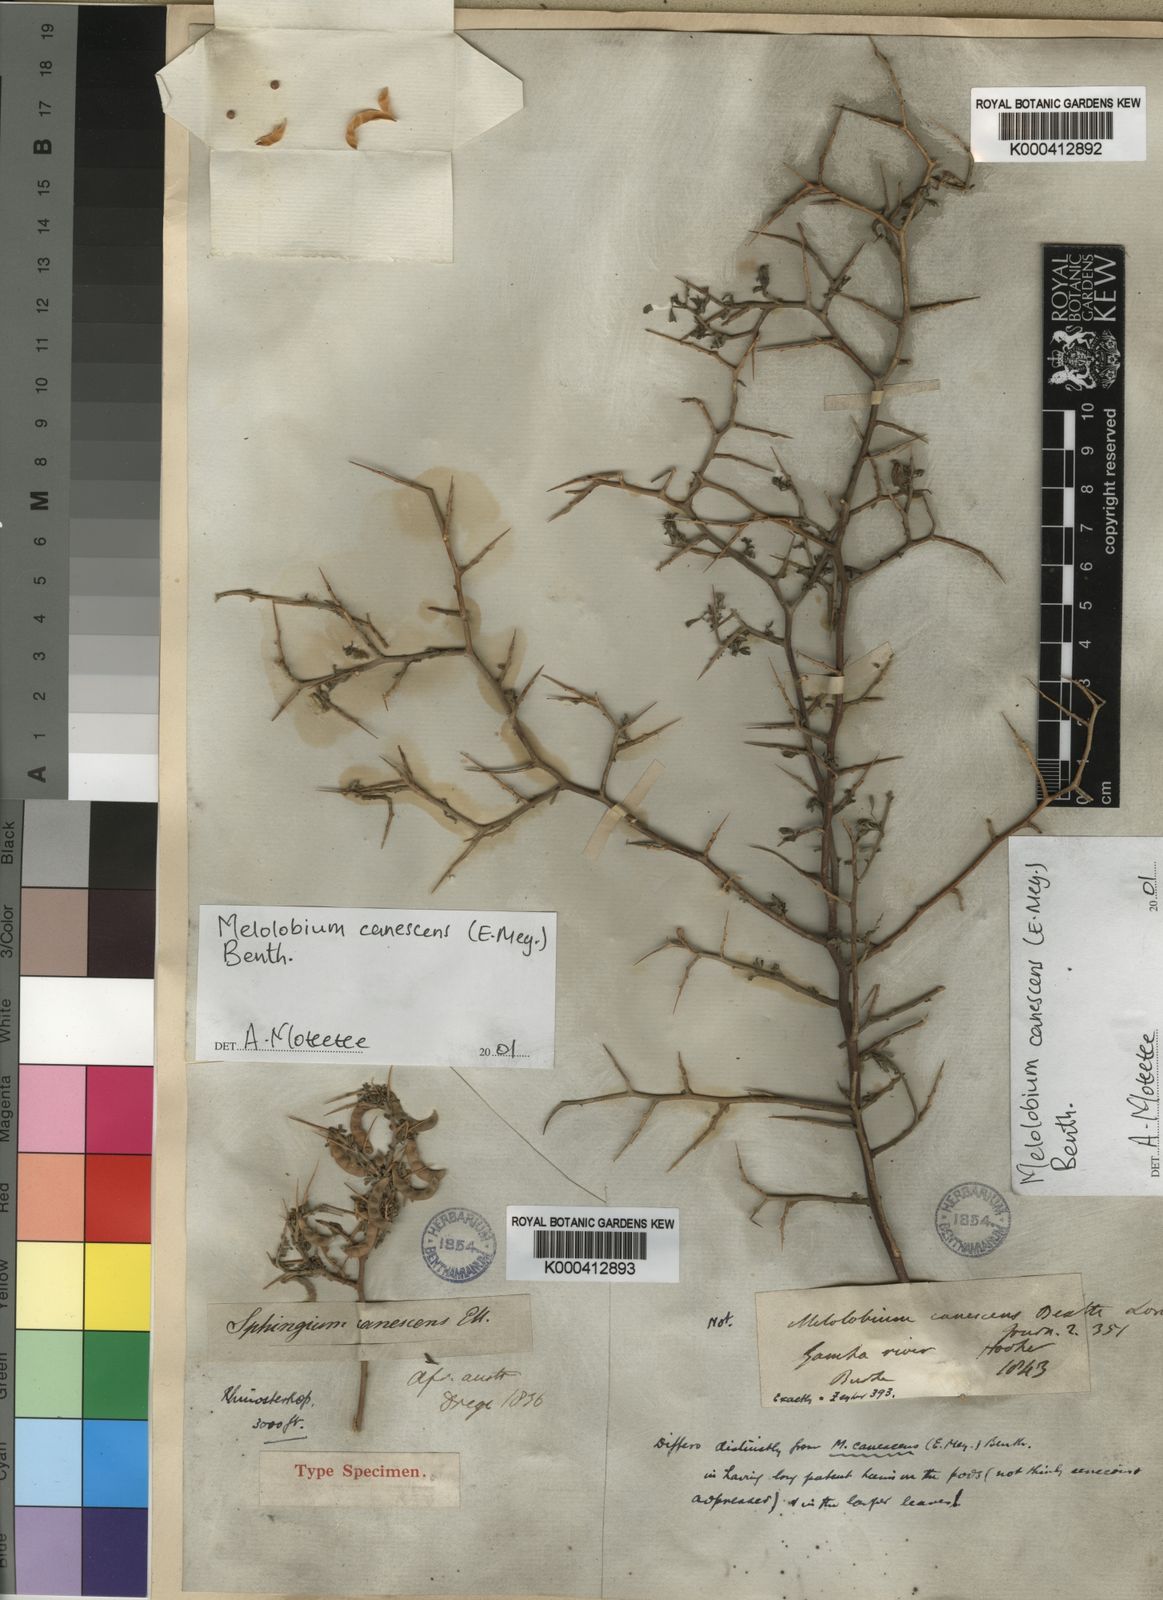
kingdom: Plantae
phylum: Tracheophyta
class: Magnoliopsida
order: Fabales
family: Fabaceae
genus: Melolobium
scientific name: Melolobium microphyllum
